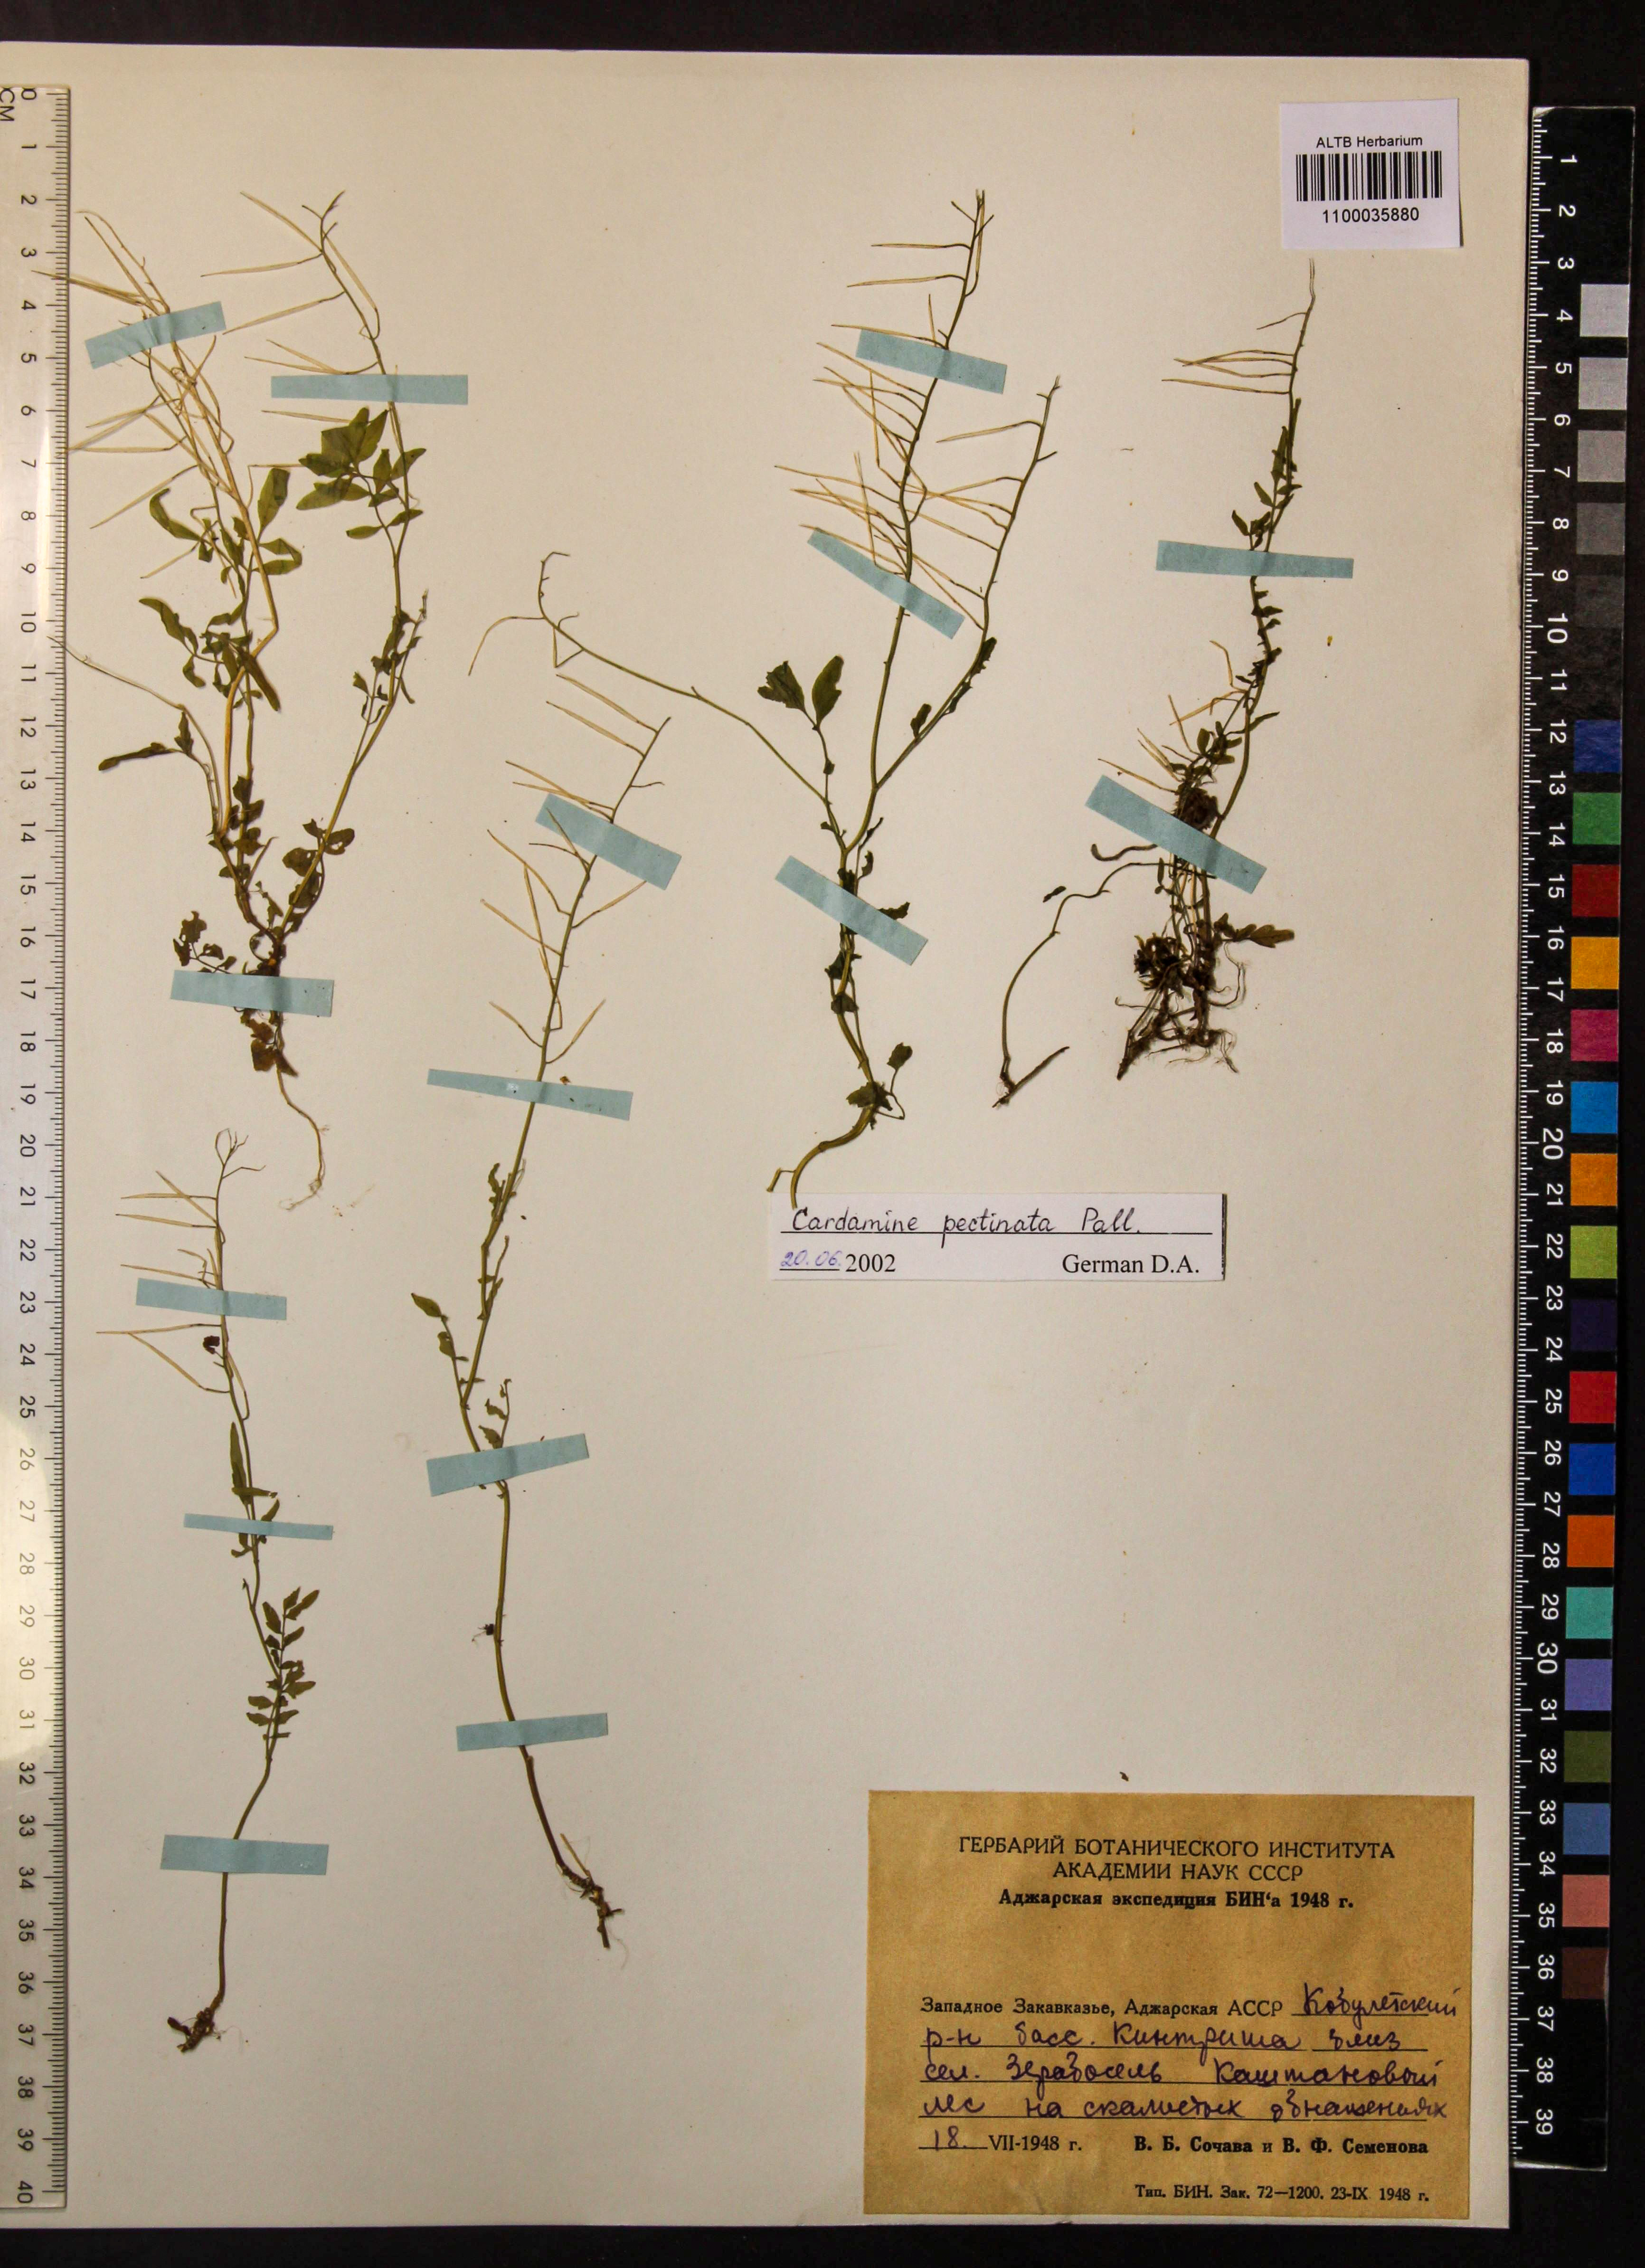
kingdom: Plantae
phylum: Tracheophyta
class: Magnoliopsida
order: Brassicales
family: Brassicaceae
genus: Cardamine
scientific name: Cardamine impatiens
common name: Narrow-leaved bitter-cress
